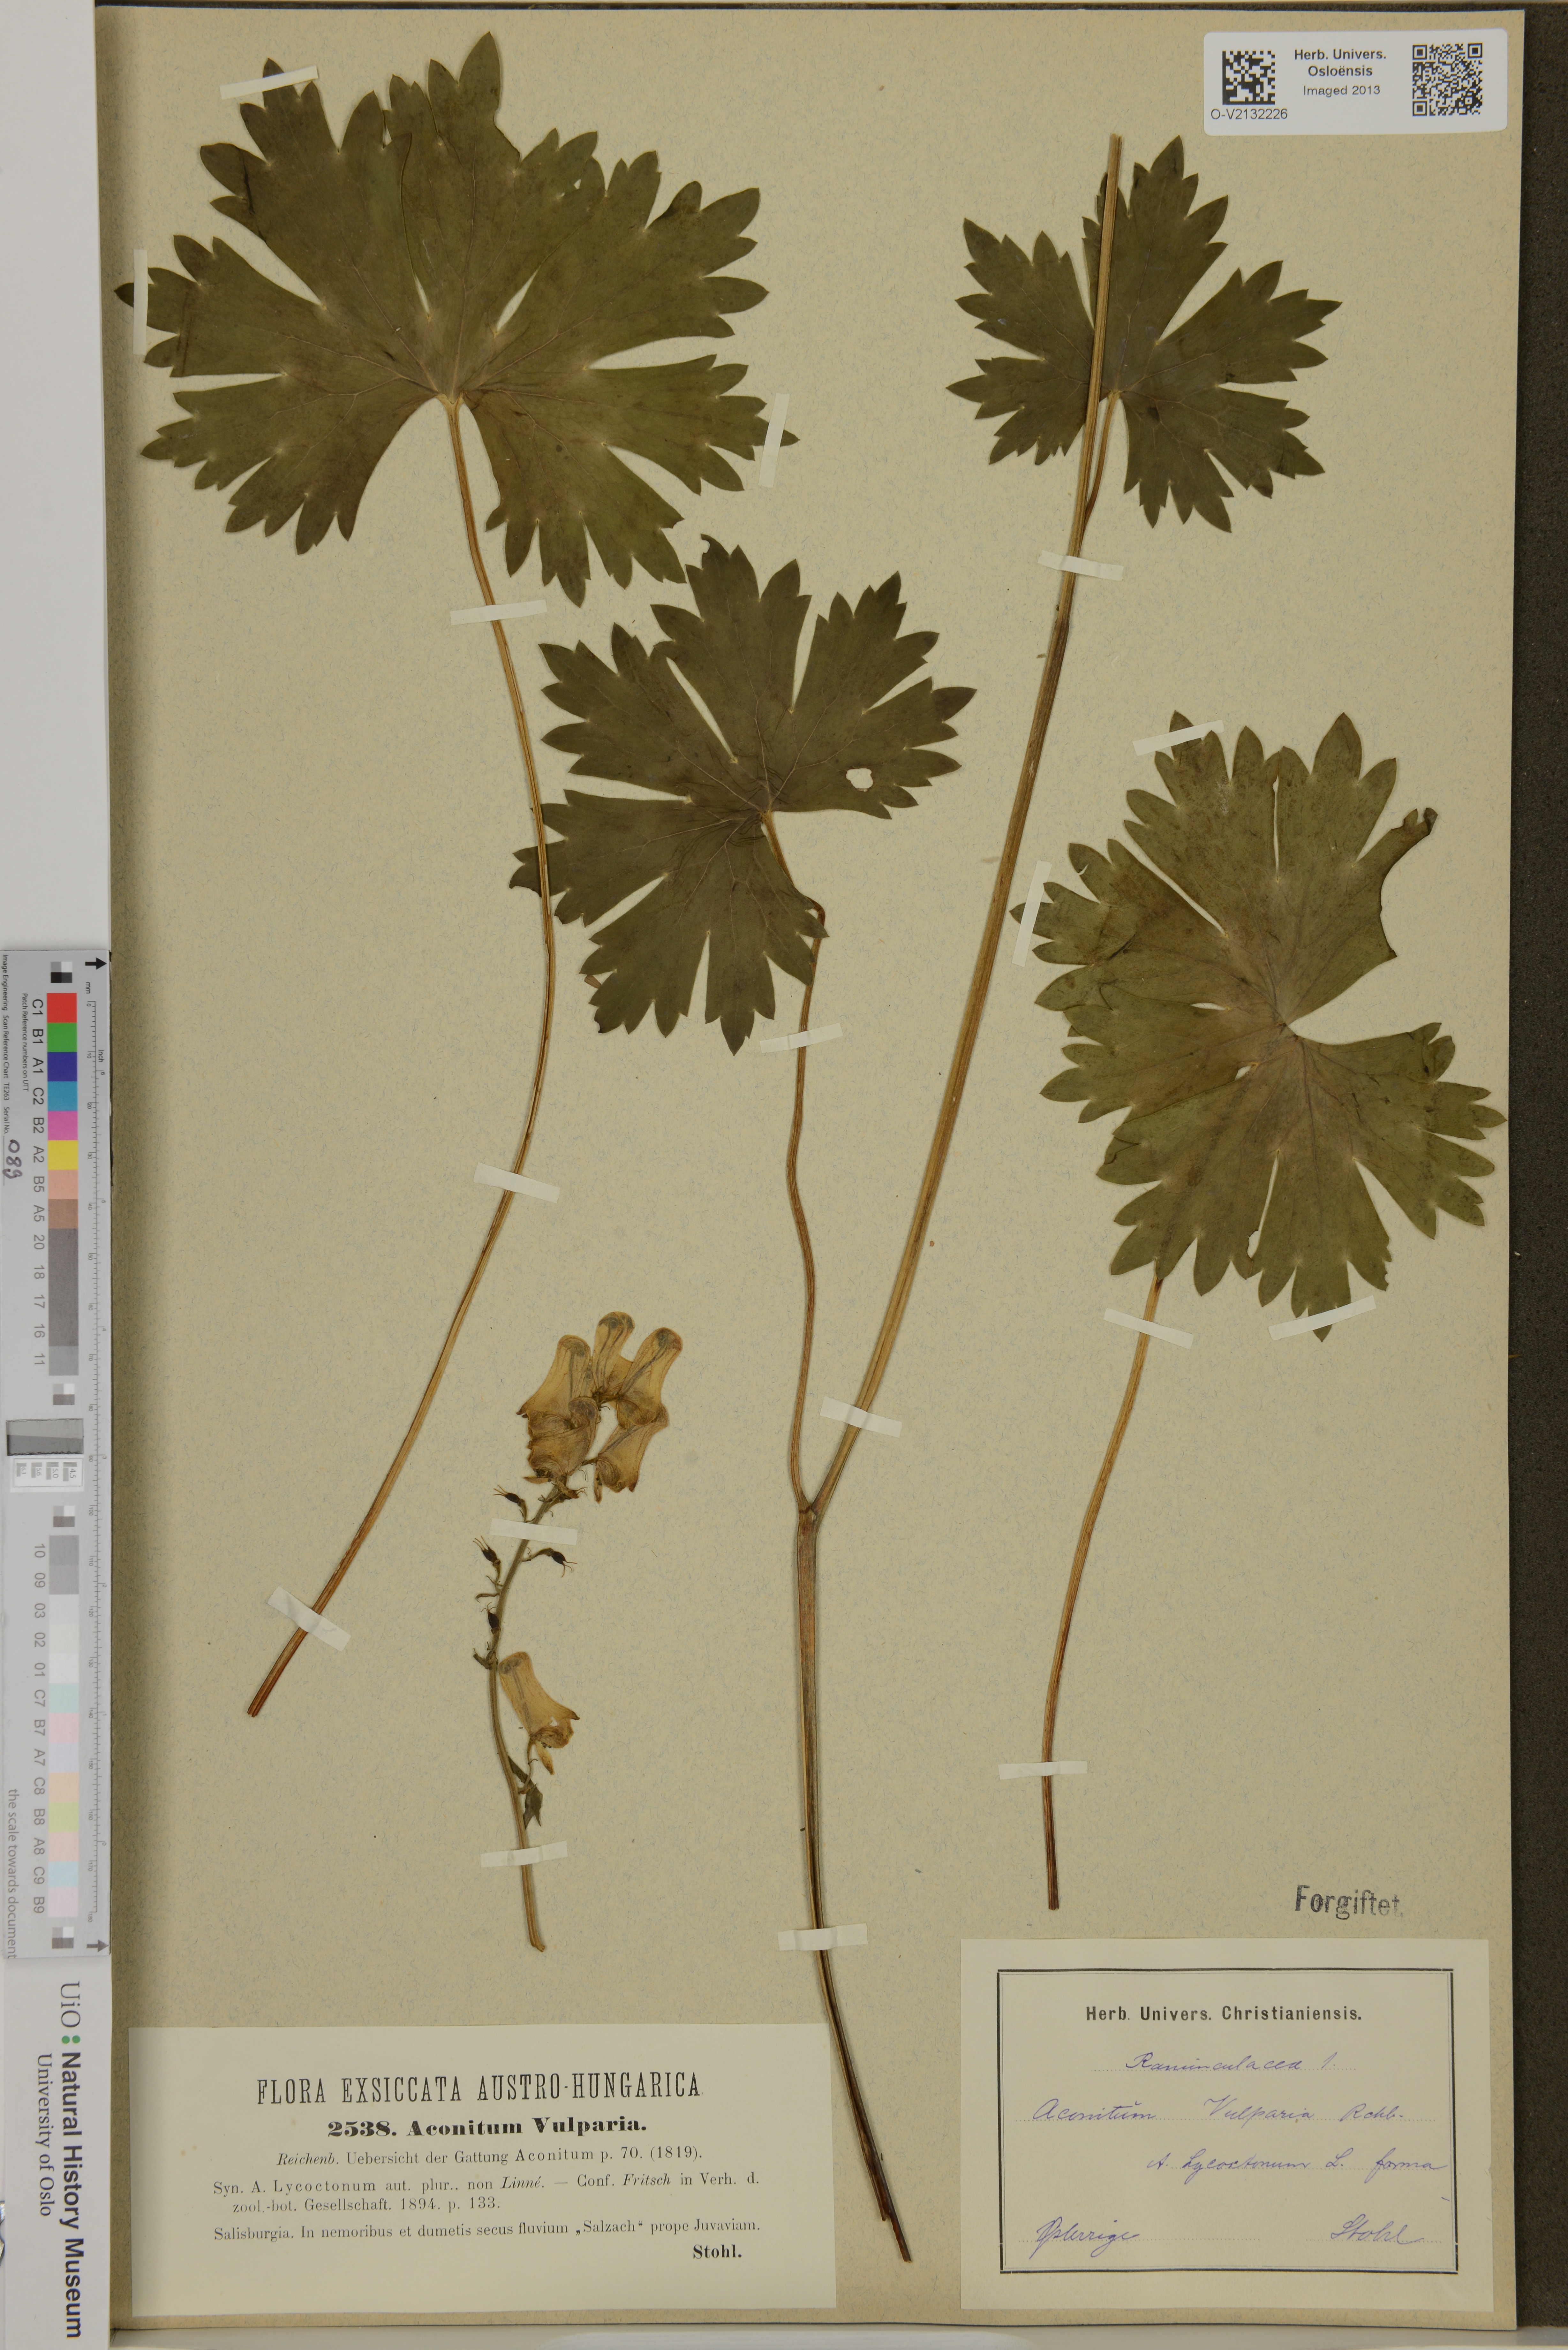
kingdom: Plantae
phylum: Tracheophyta
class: Magnoliopsida
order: Ranunculales
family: Ranunculaceae
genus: Aconitum
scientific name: Aconitum lycoctonum
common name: Wolf's-bane
